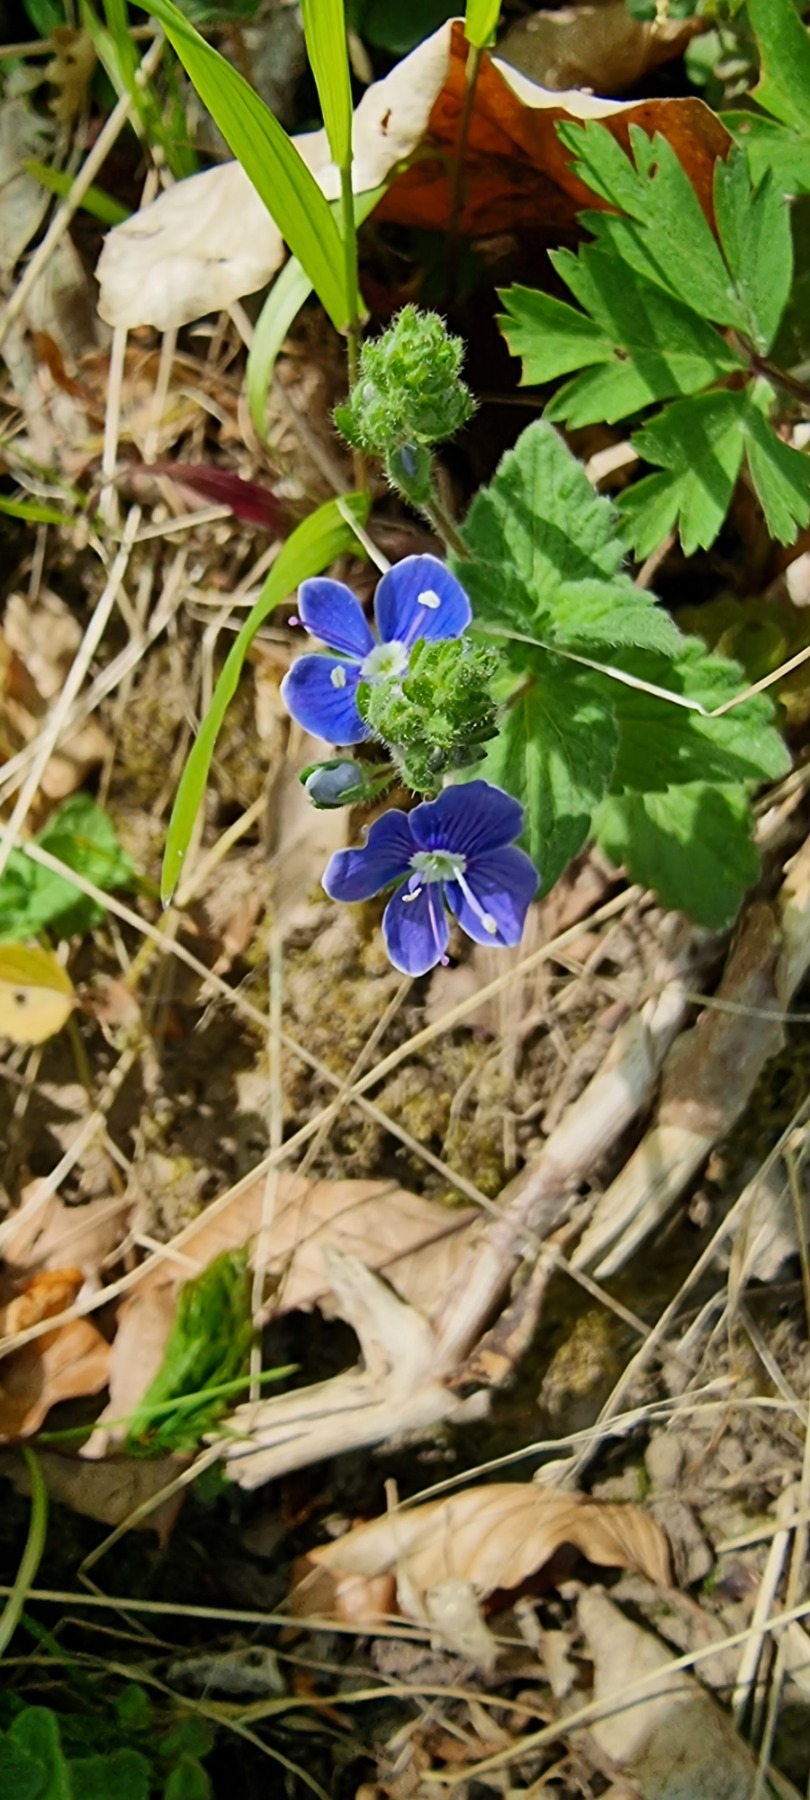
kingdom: Plantae
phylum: Tracheophyta
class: Magnoliopsida
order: Lamiales
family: Plantaginaceae
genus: Veronica
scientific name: Veronica chamaedrys
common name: Tveskægget ærenpris
